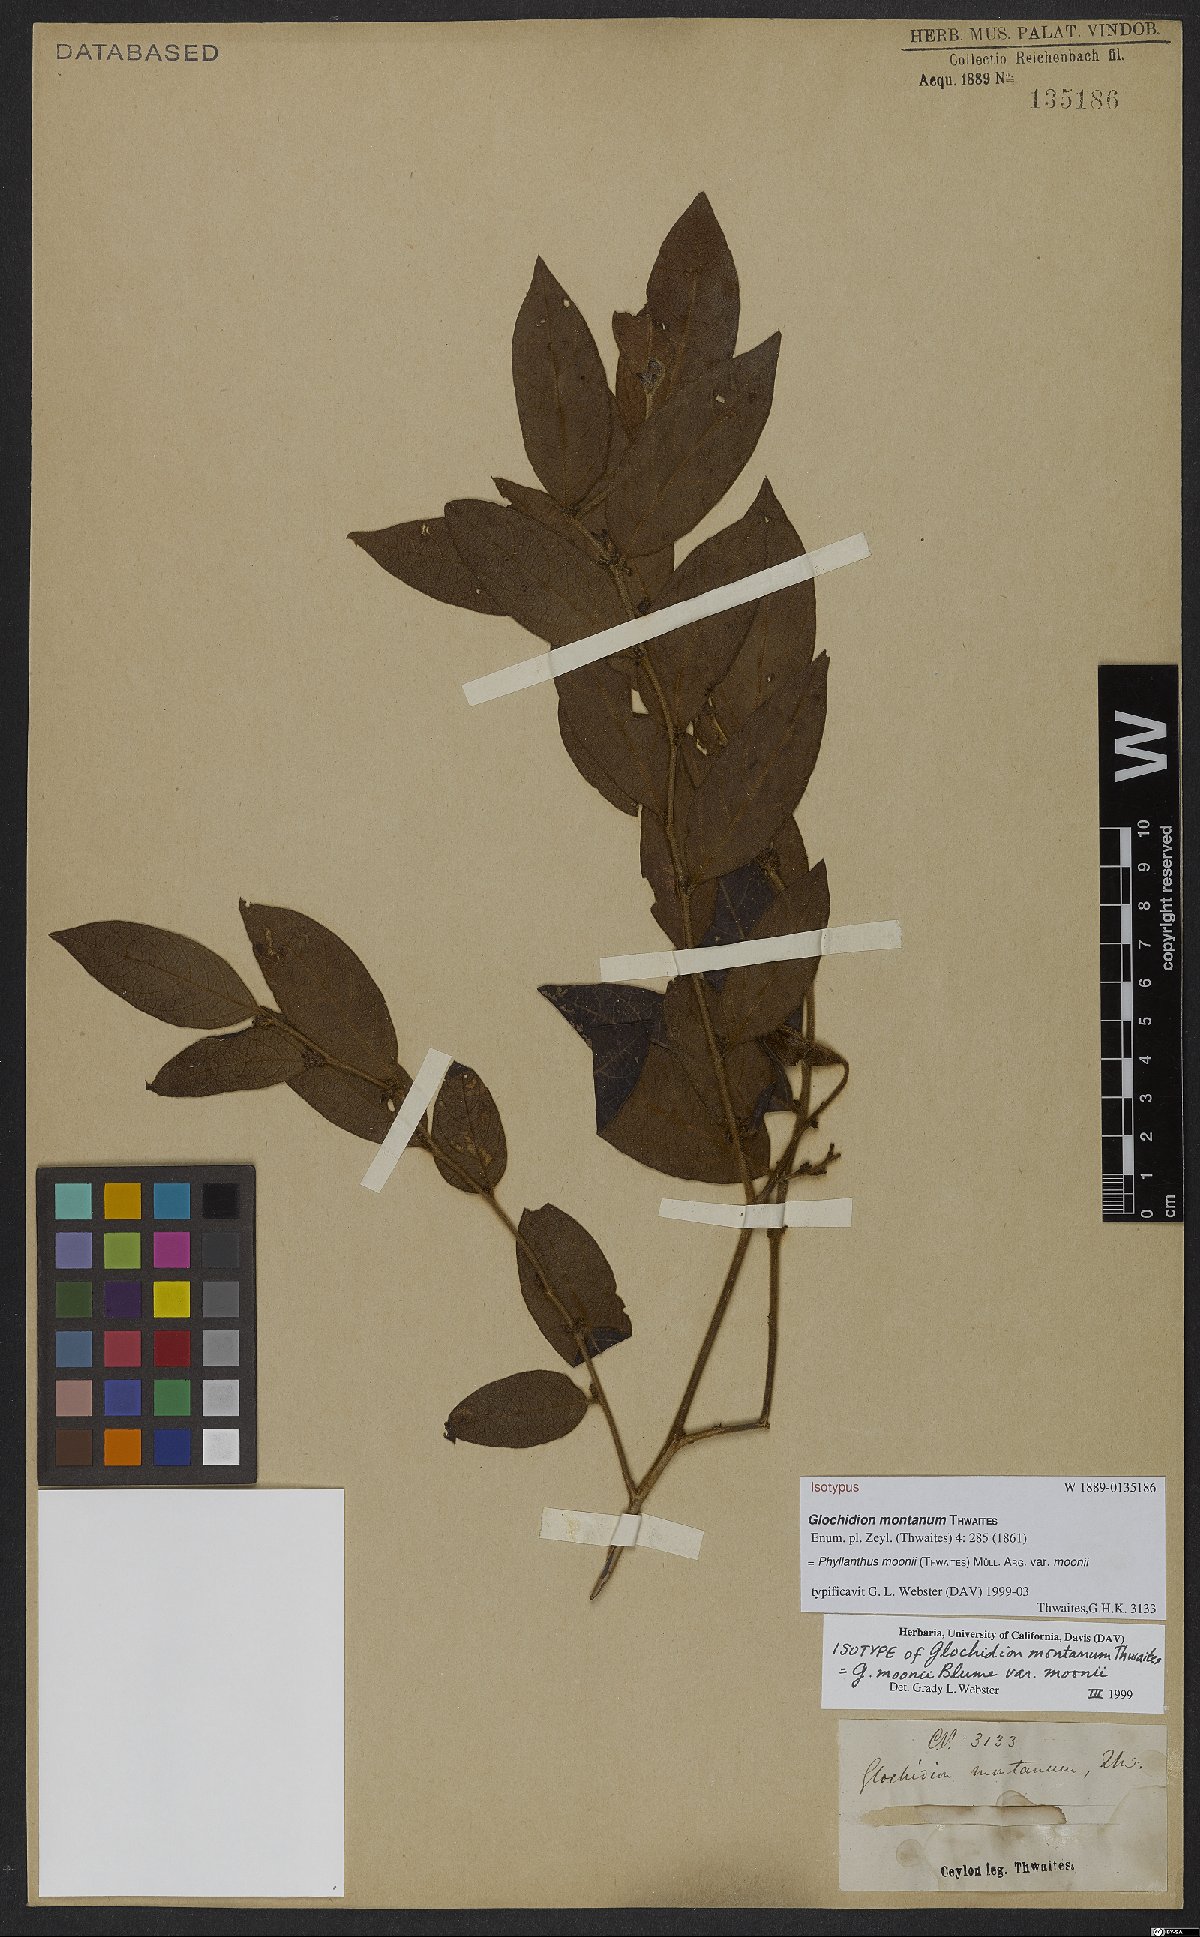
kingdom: Plantae
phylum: Tracheophyta
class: Magnoliopsida
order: Malpighiales
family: Phyllanthaceae
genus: Glochidion
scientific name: Glochidion moonii
